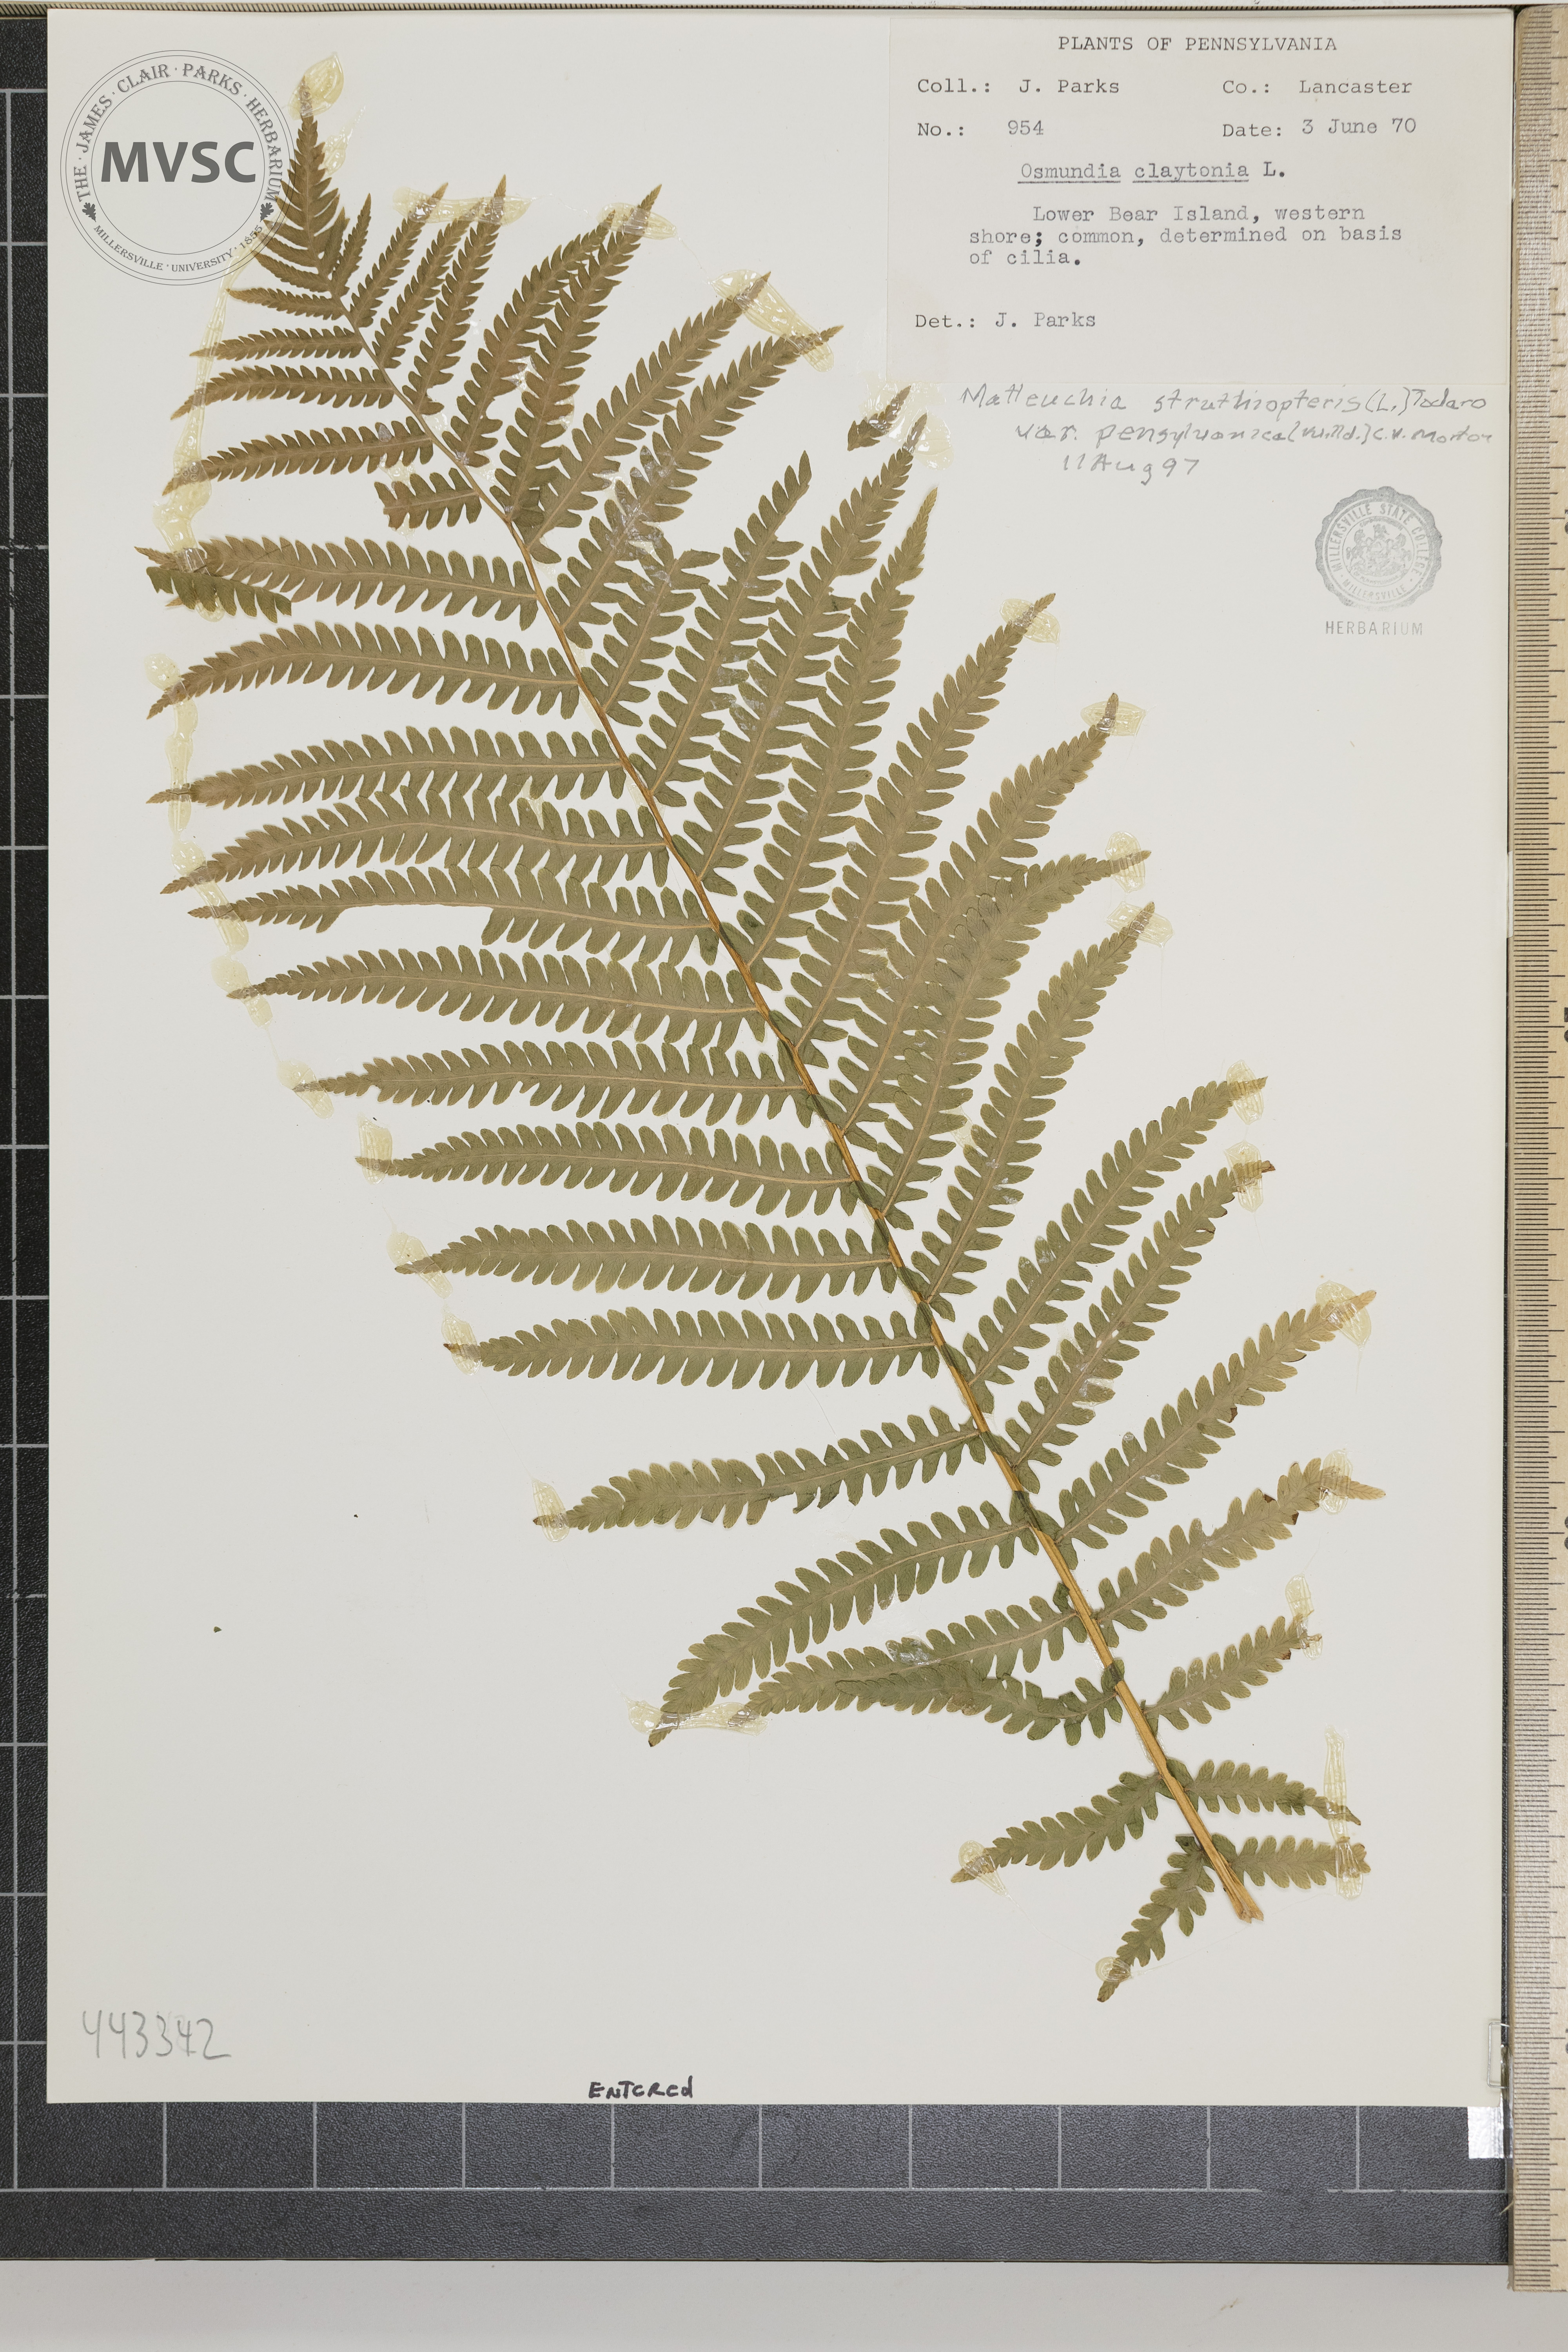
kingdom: Plantae
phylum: Tracheophyta
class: Polypodiopsida
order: Polypodiales
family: Onocleaceae
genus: Matteuccia
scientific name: Matteuccia struthiopteris
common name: Ostrich fern
